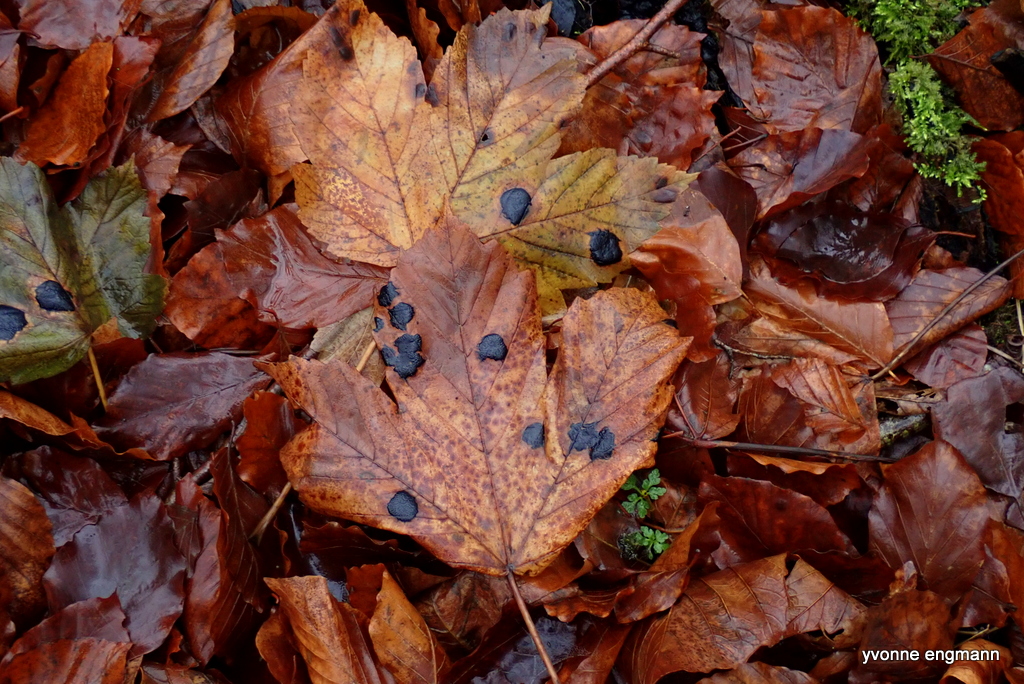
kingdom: Fungi
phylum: Ascomycota
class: Leotiomycetes
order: Rhytismatales
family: Rhytismataceae
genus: Rhytisma
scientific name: Rhytisma acerinum
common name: ahorn-rynkeplet
